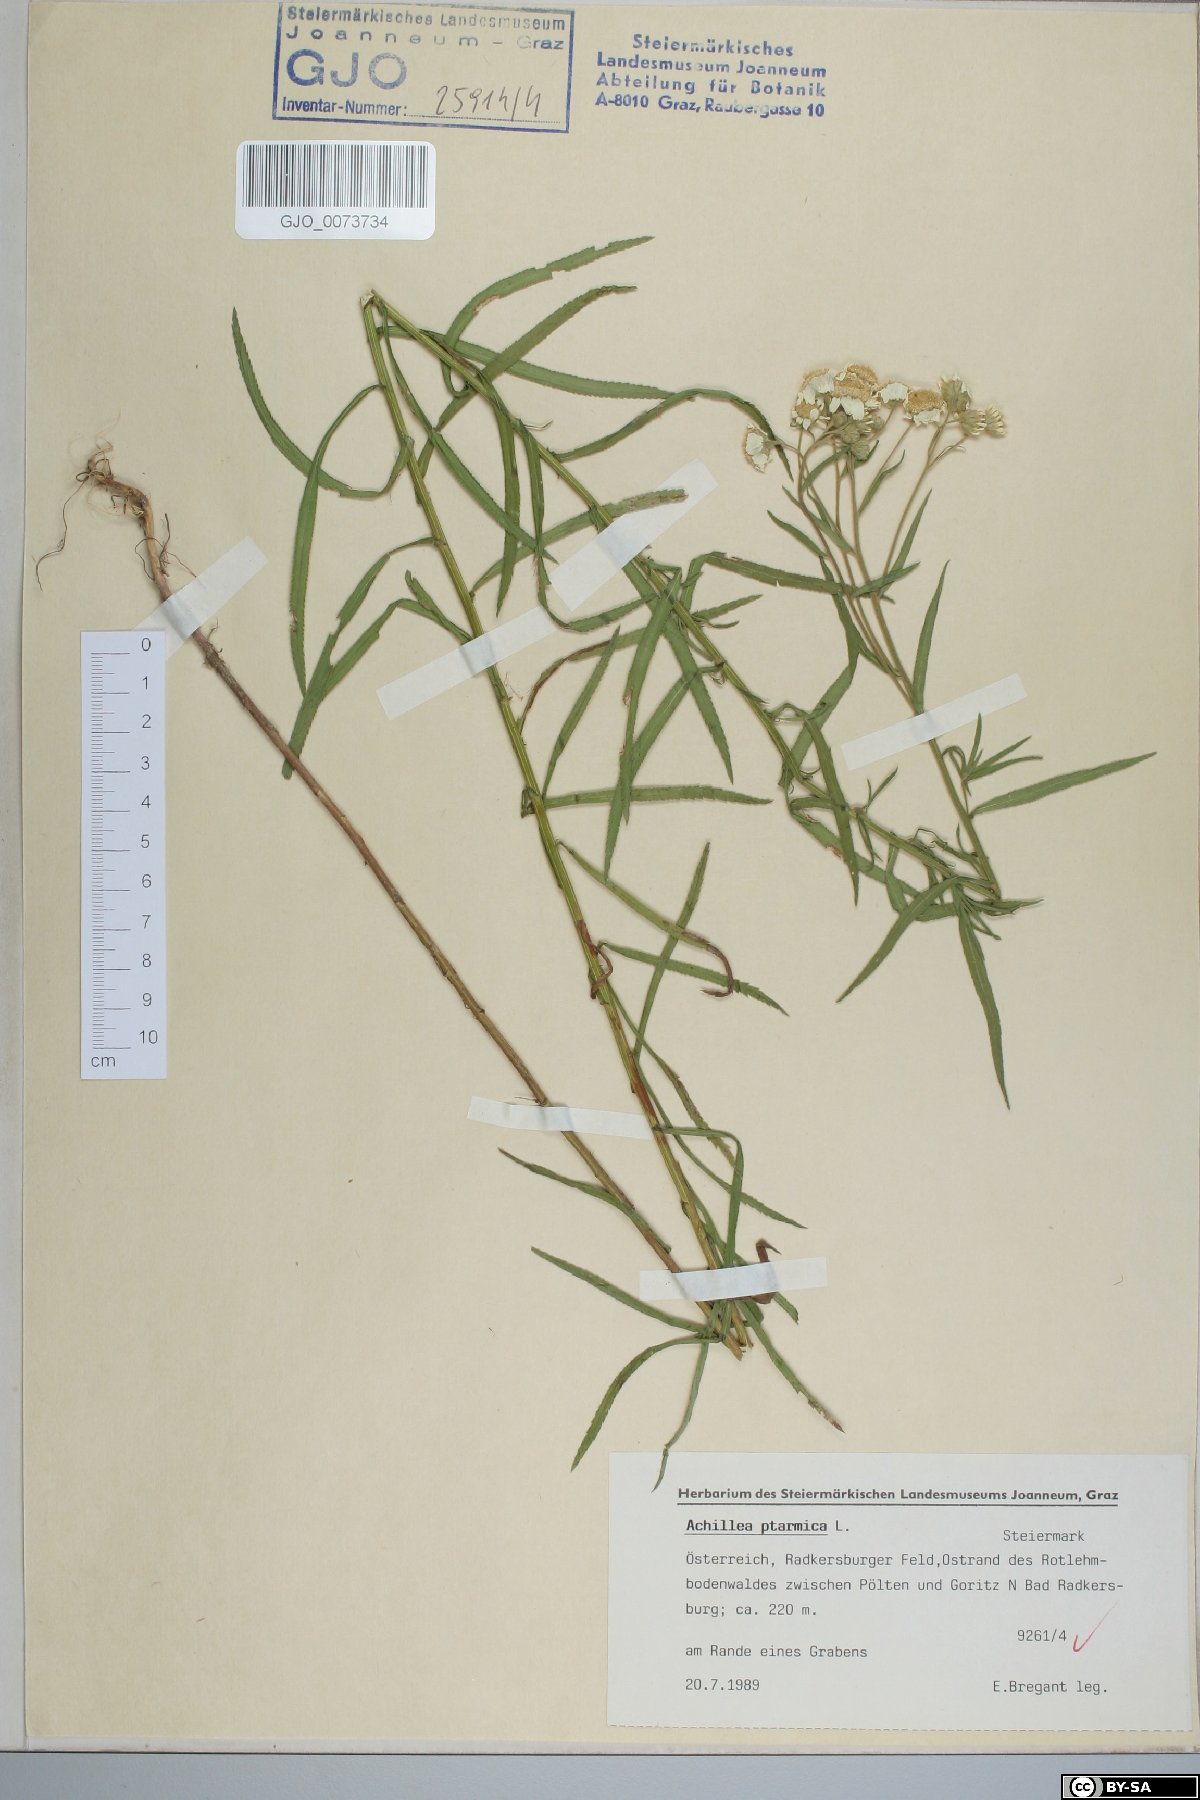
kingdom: Plantae
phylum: Tracheophyta
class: Magnoliopsida
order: Asterales
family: Asteraceae
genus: Achillea
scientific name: Achillea ptarmica
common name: Sneezeweed
